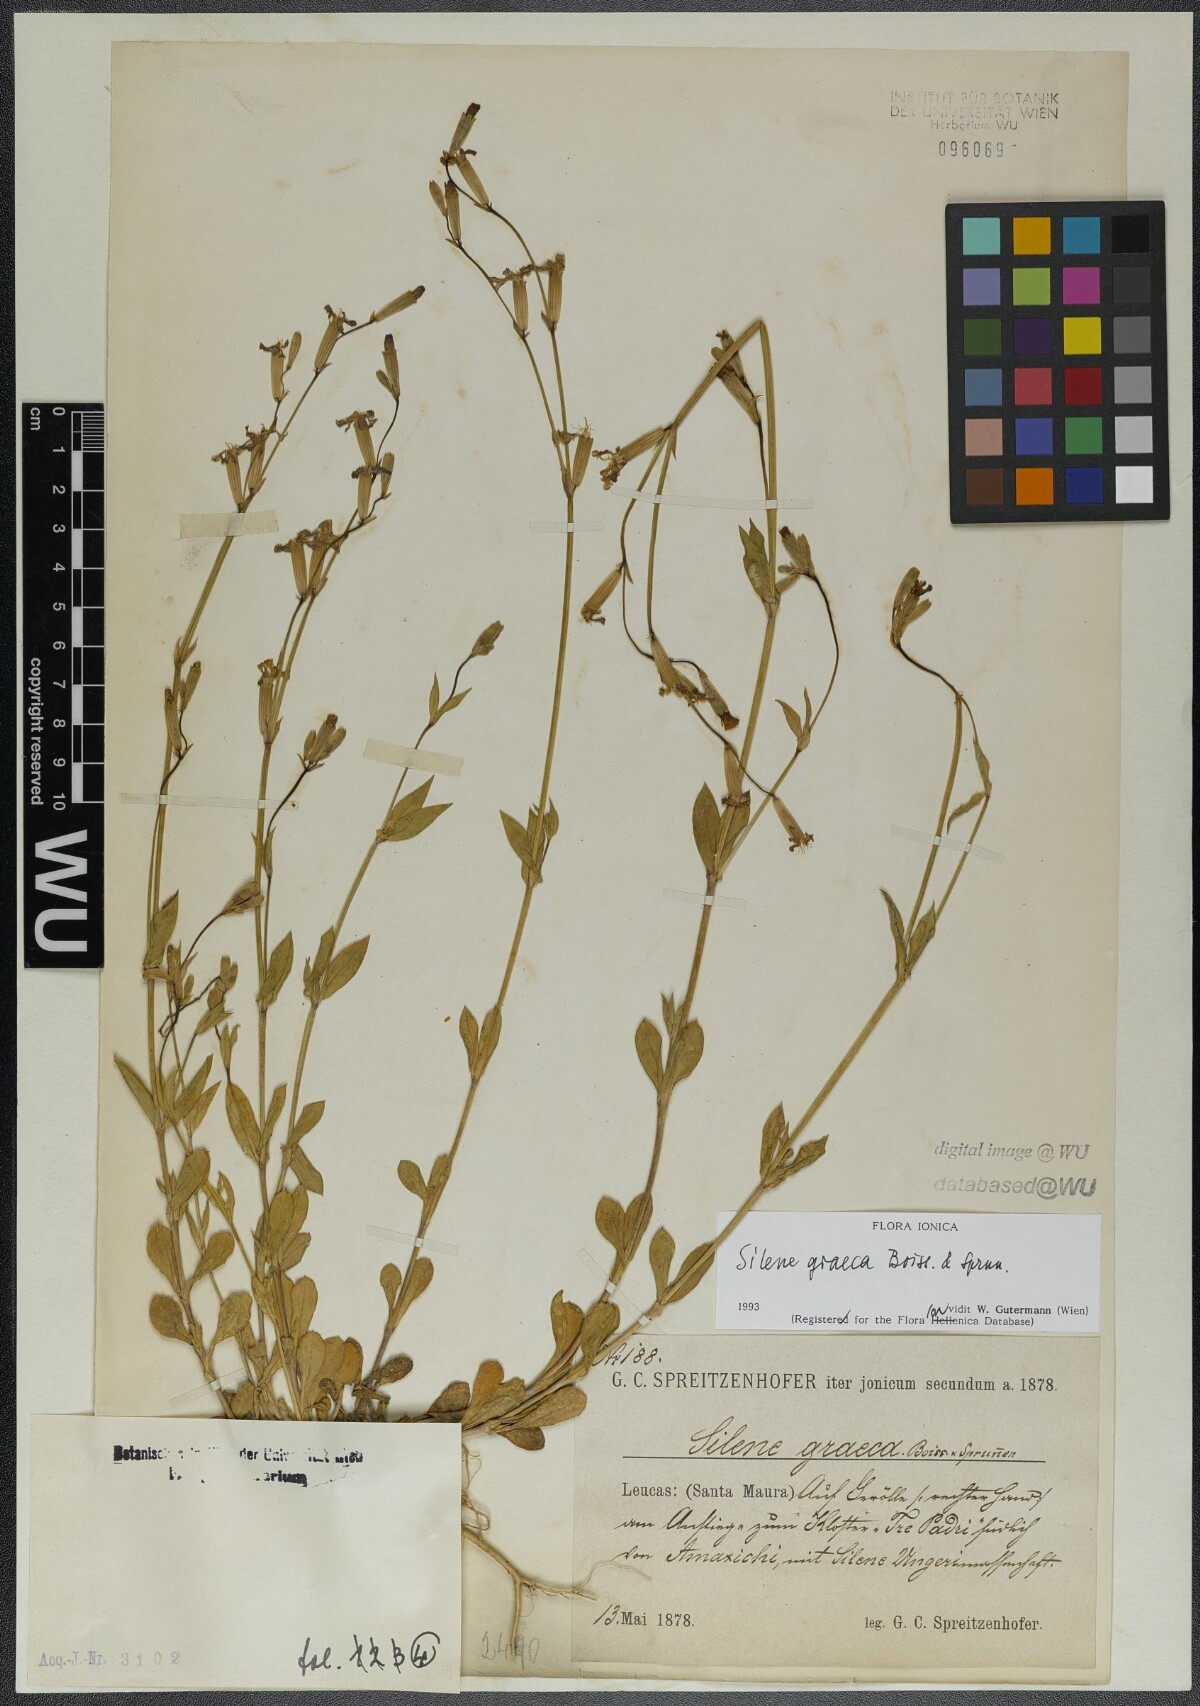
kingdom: Plantae
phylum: Tracheophyta
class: Magnoliopsida
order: Caryophyllales
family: Caryophyllaceae
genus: Silene
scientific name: Silene graeca
